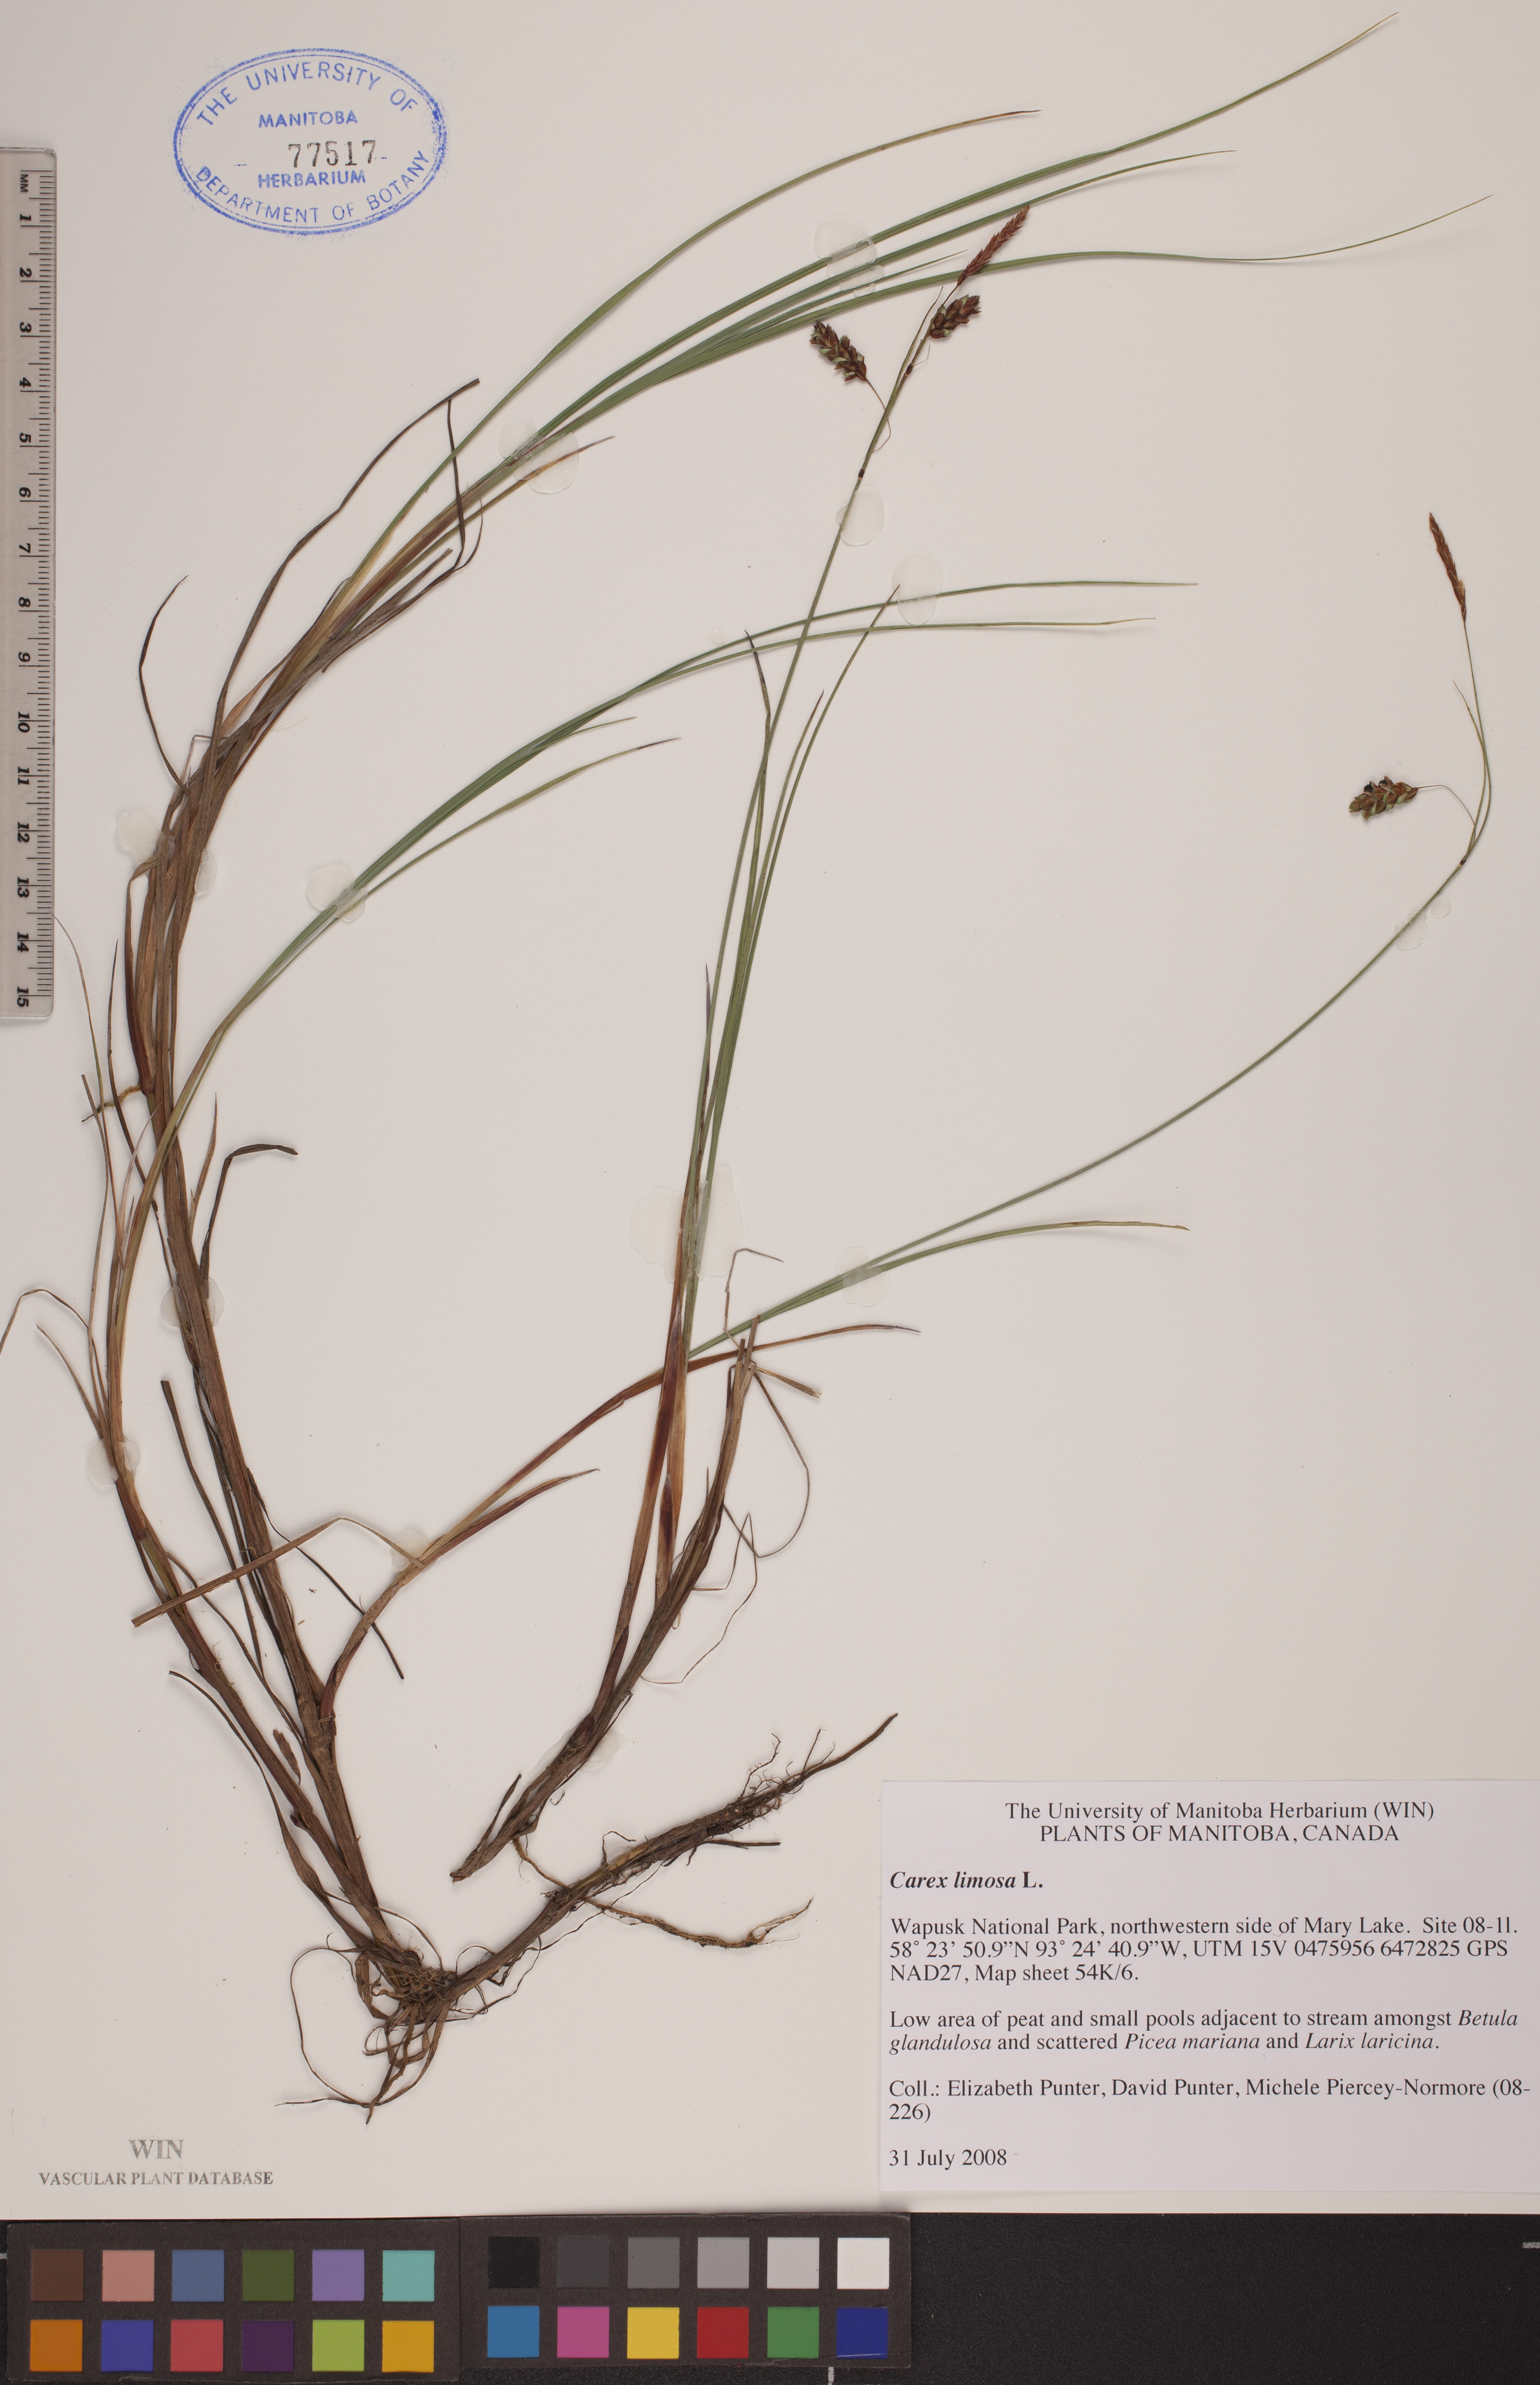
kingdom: Plantae
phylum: Tracheophyta
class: Liliopsida
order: Poales
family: Cyperaceae
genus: Carex
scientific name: Carex limosa
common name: Bog sedge
